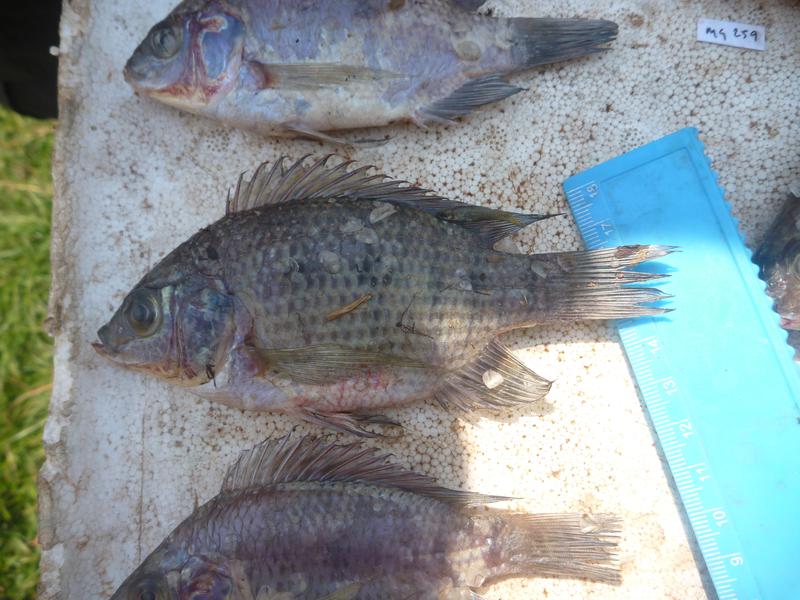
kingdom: Animalia
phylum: Chordata
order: Perciformes
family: Cichlidae
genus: Oreochromis
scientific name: Oreochromis upembae
